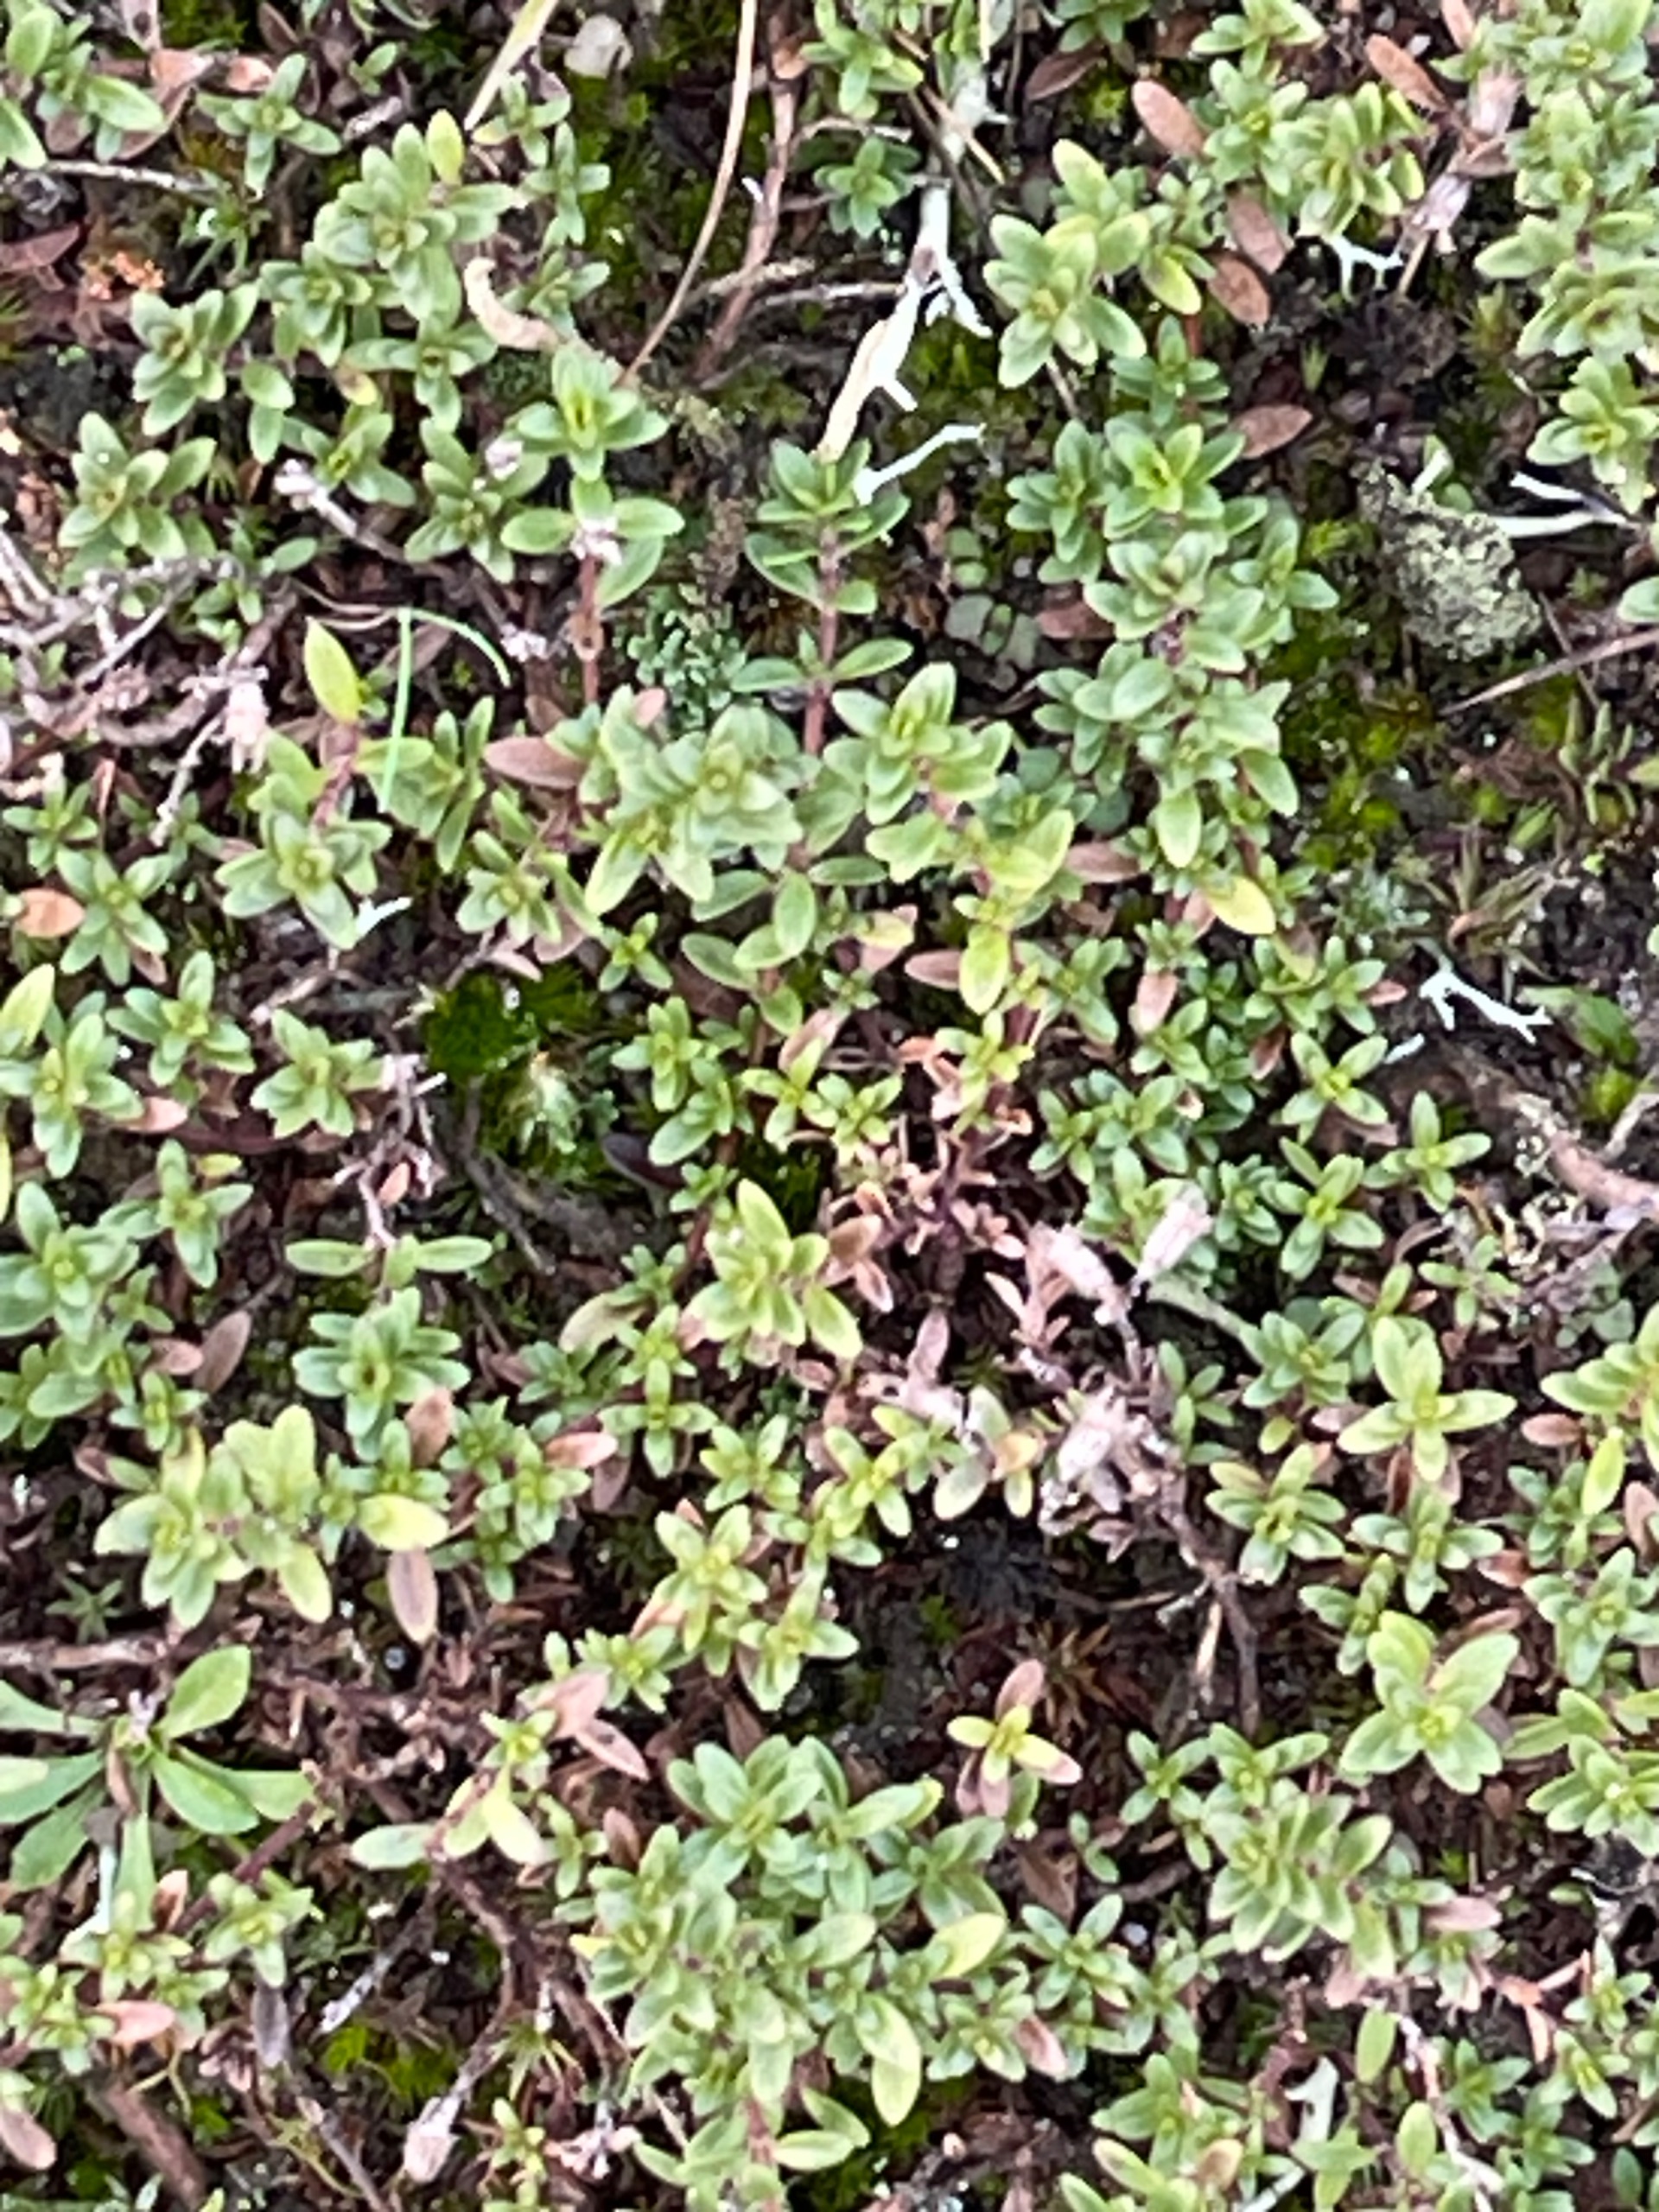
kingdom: Plantae
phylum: Tracheophyta
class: Magnoliopsida
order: Lamiales
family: Lamiaceae
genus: Thymus
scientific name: Thymus serpyllum
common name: Smalbladet timian
